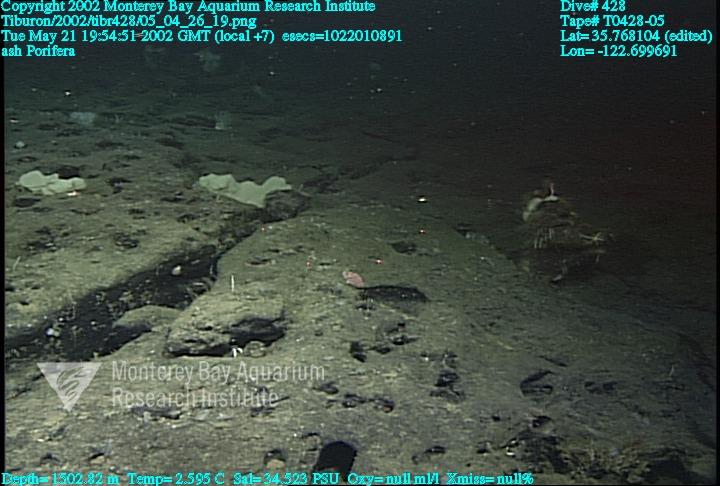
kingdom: Animalia
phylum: Porifera
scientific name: Porifera
